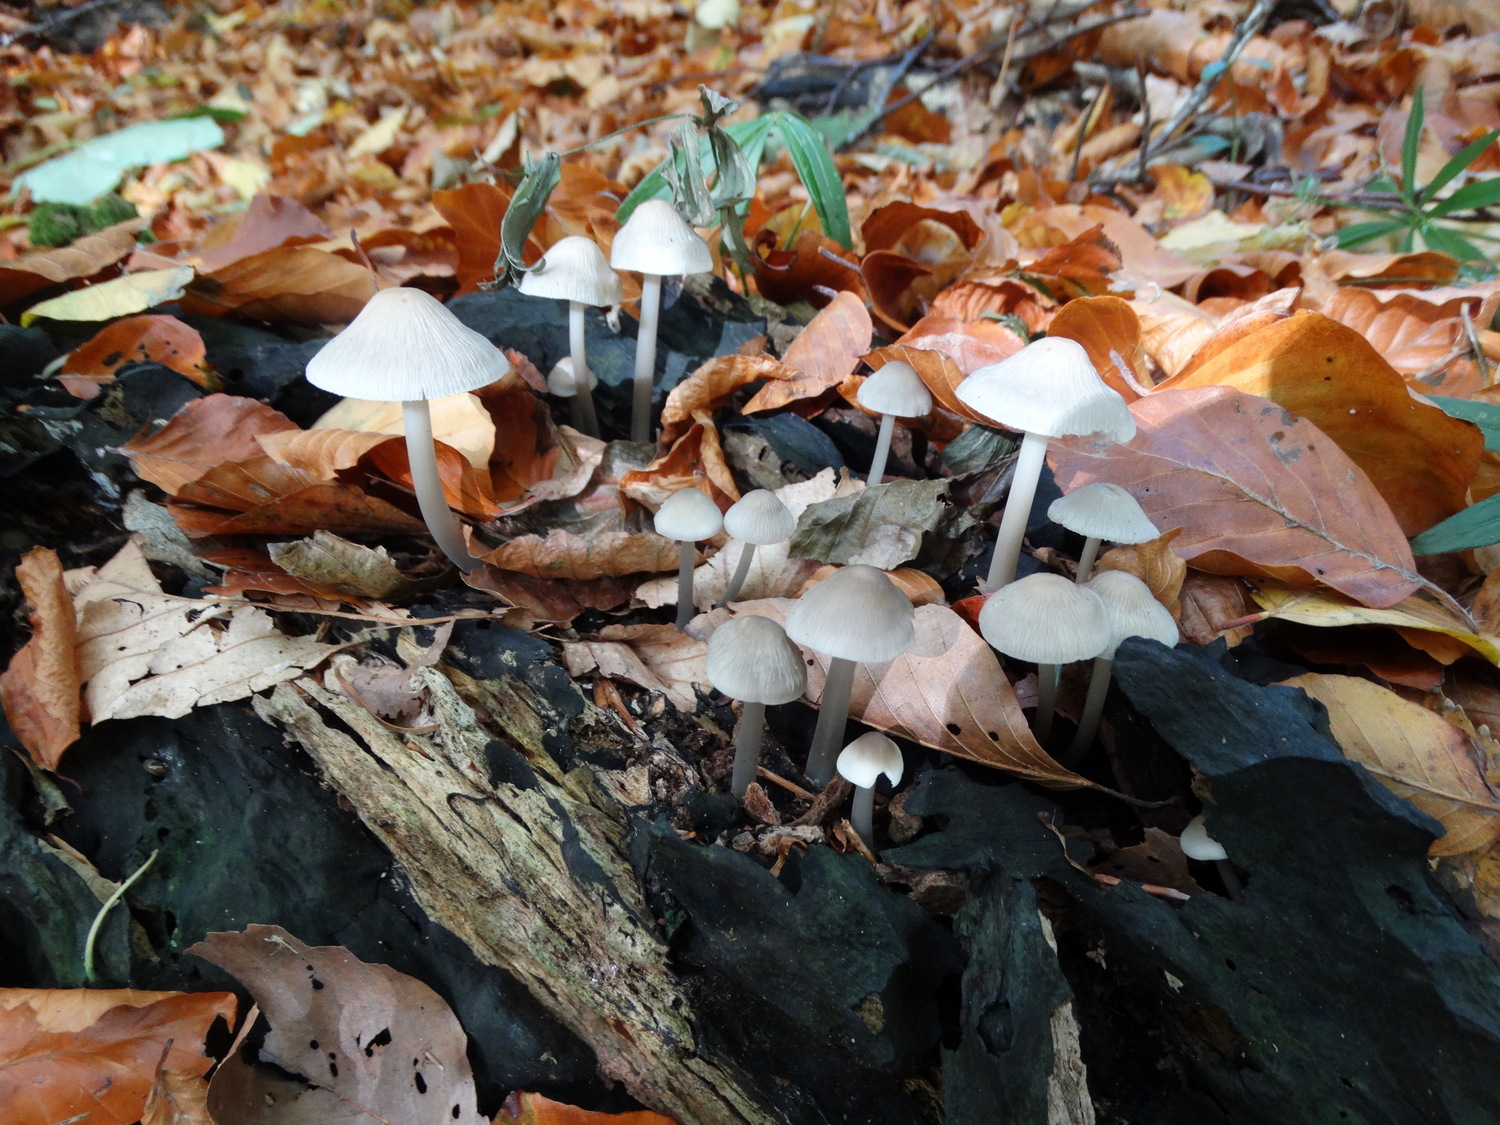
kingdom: Fungi
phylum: Basidiomycota
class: Agaricomycetes
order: Agaricales
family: Mycenaceae
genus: Mycena
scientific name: Mycena galericulata
